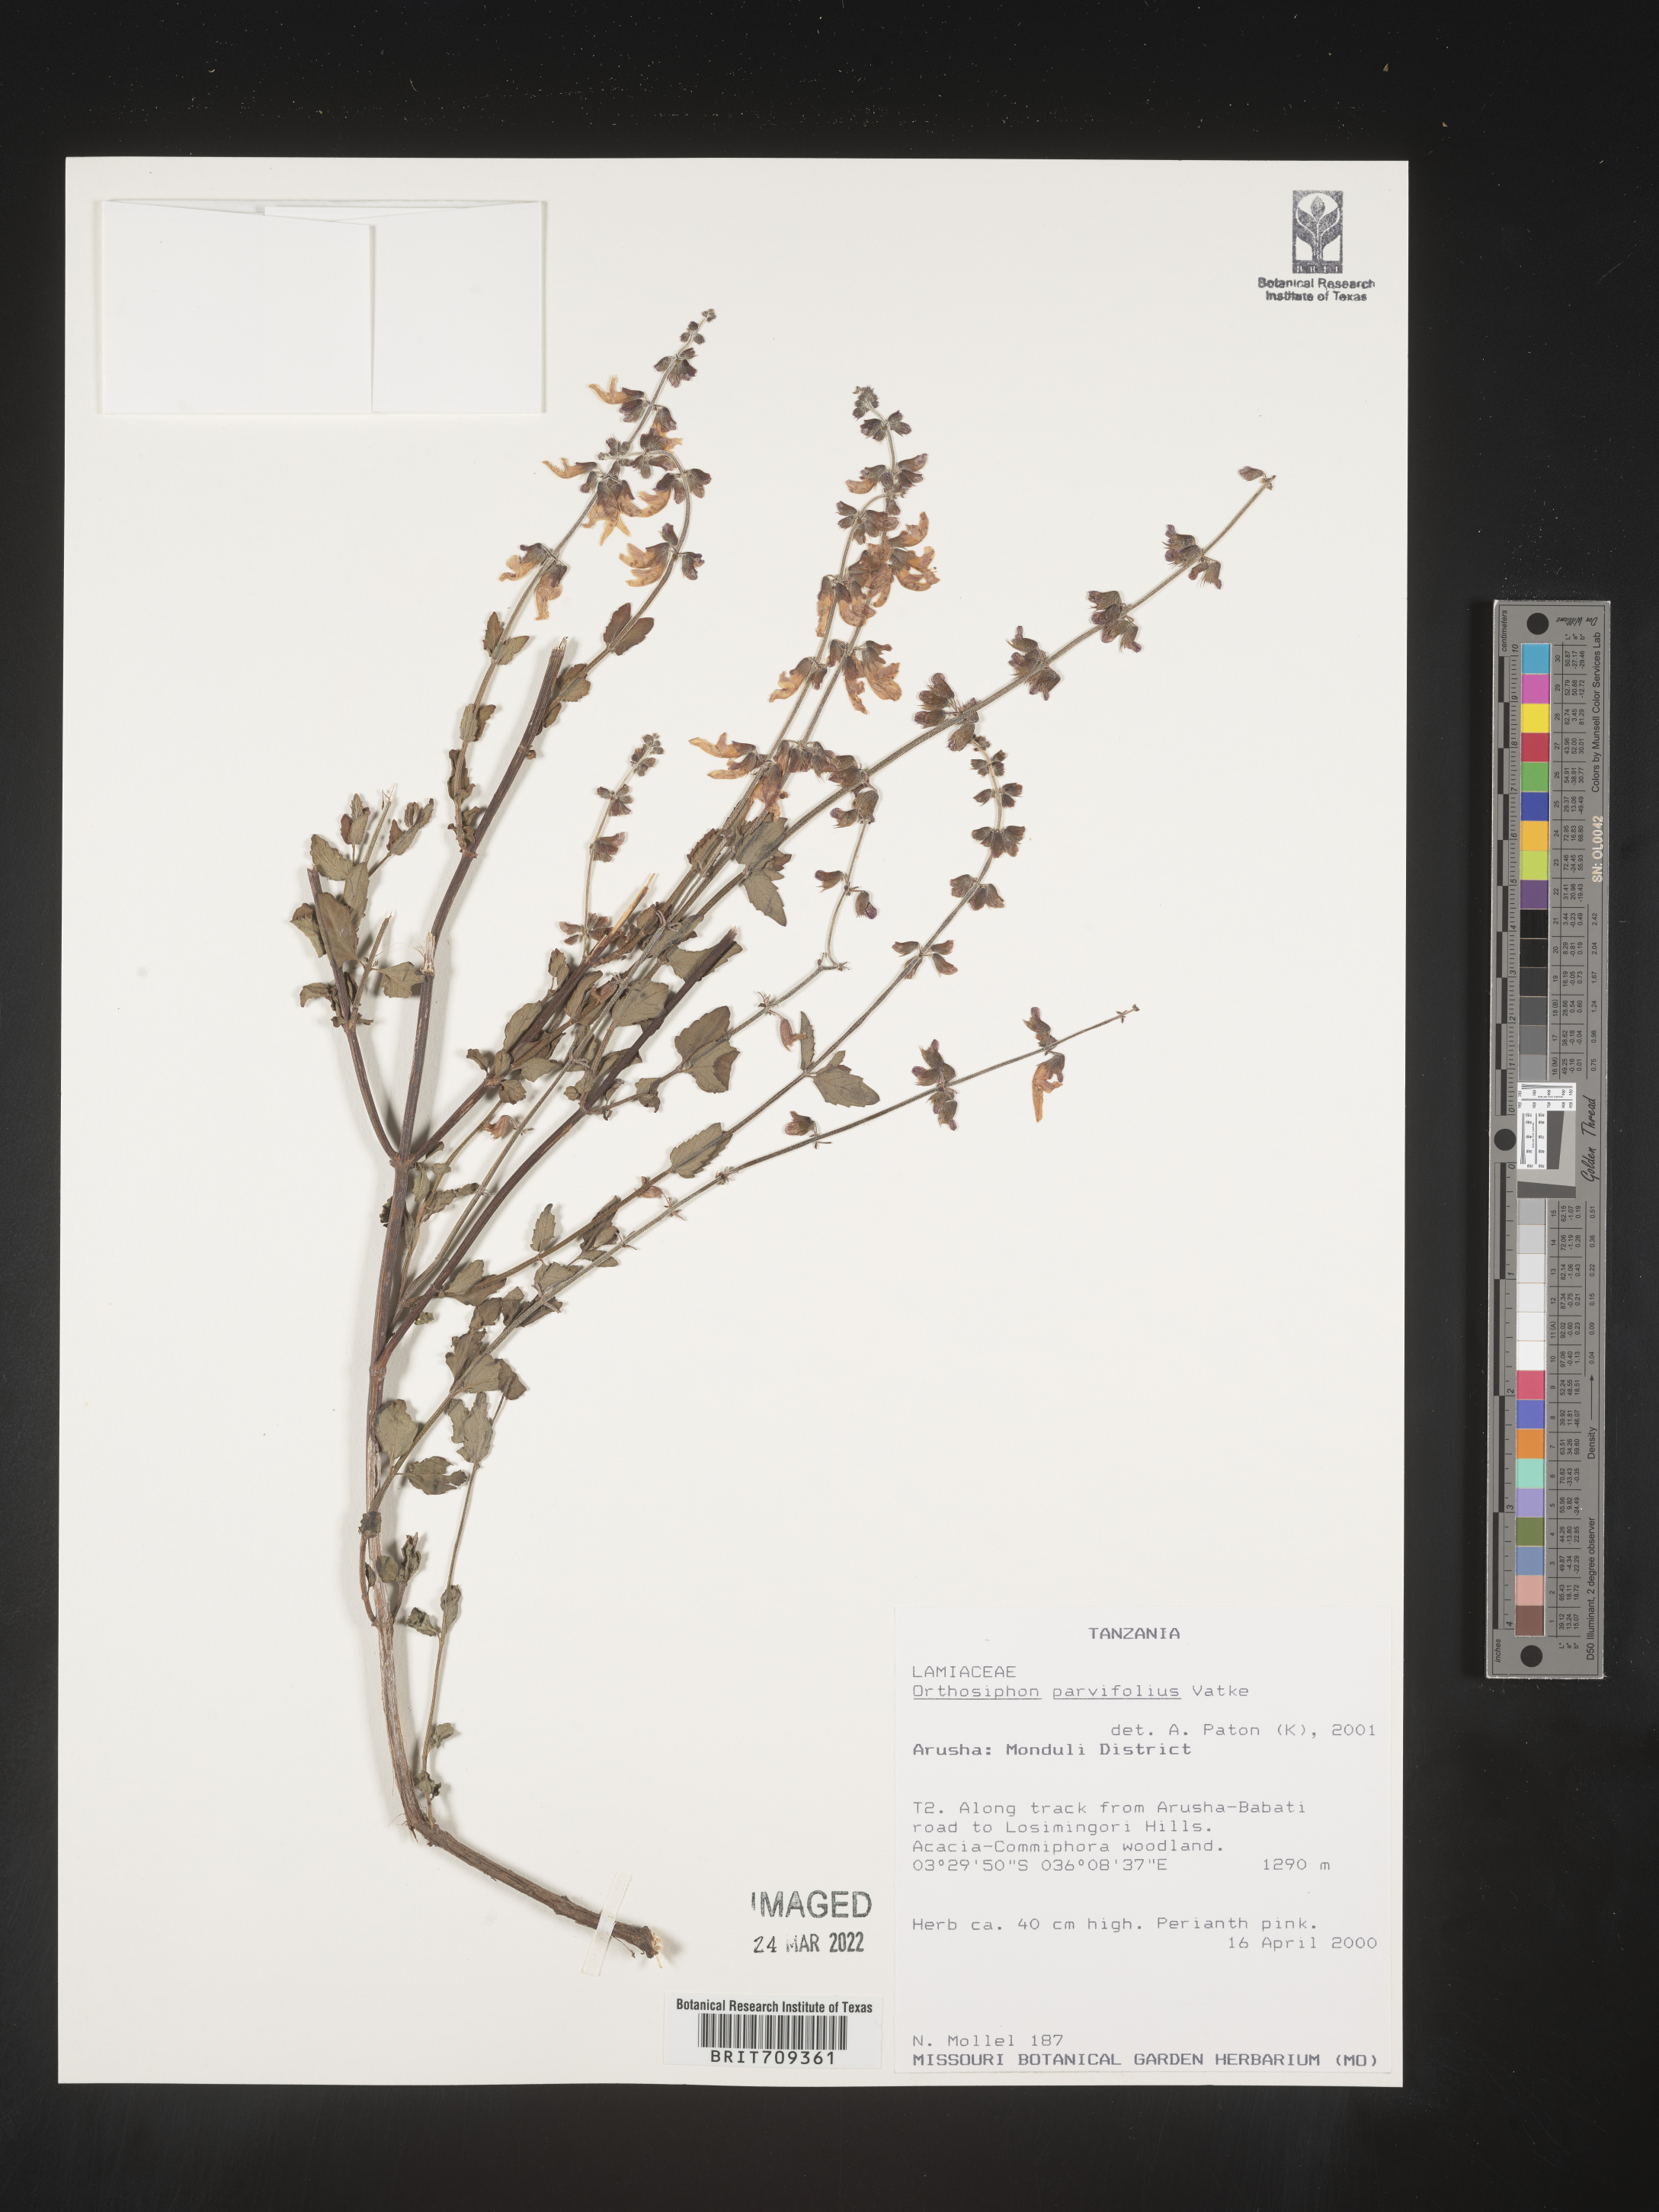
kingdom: Plantae
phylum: Tracheophyta
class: Magnoliopsida
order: Lamiales
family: Lamiaceae
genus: Orthosiphon
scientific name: Orthosiphon
